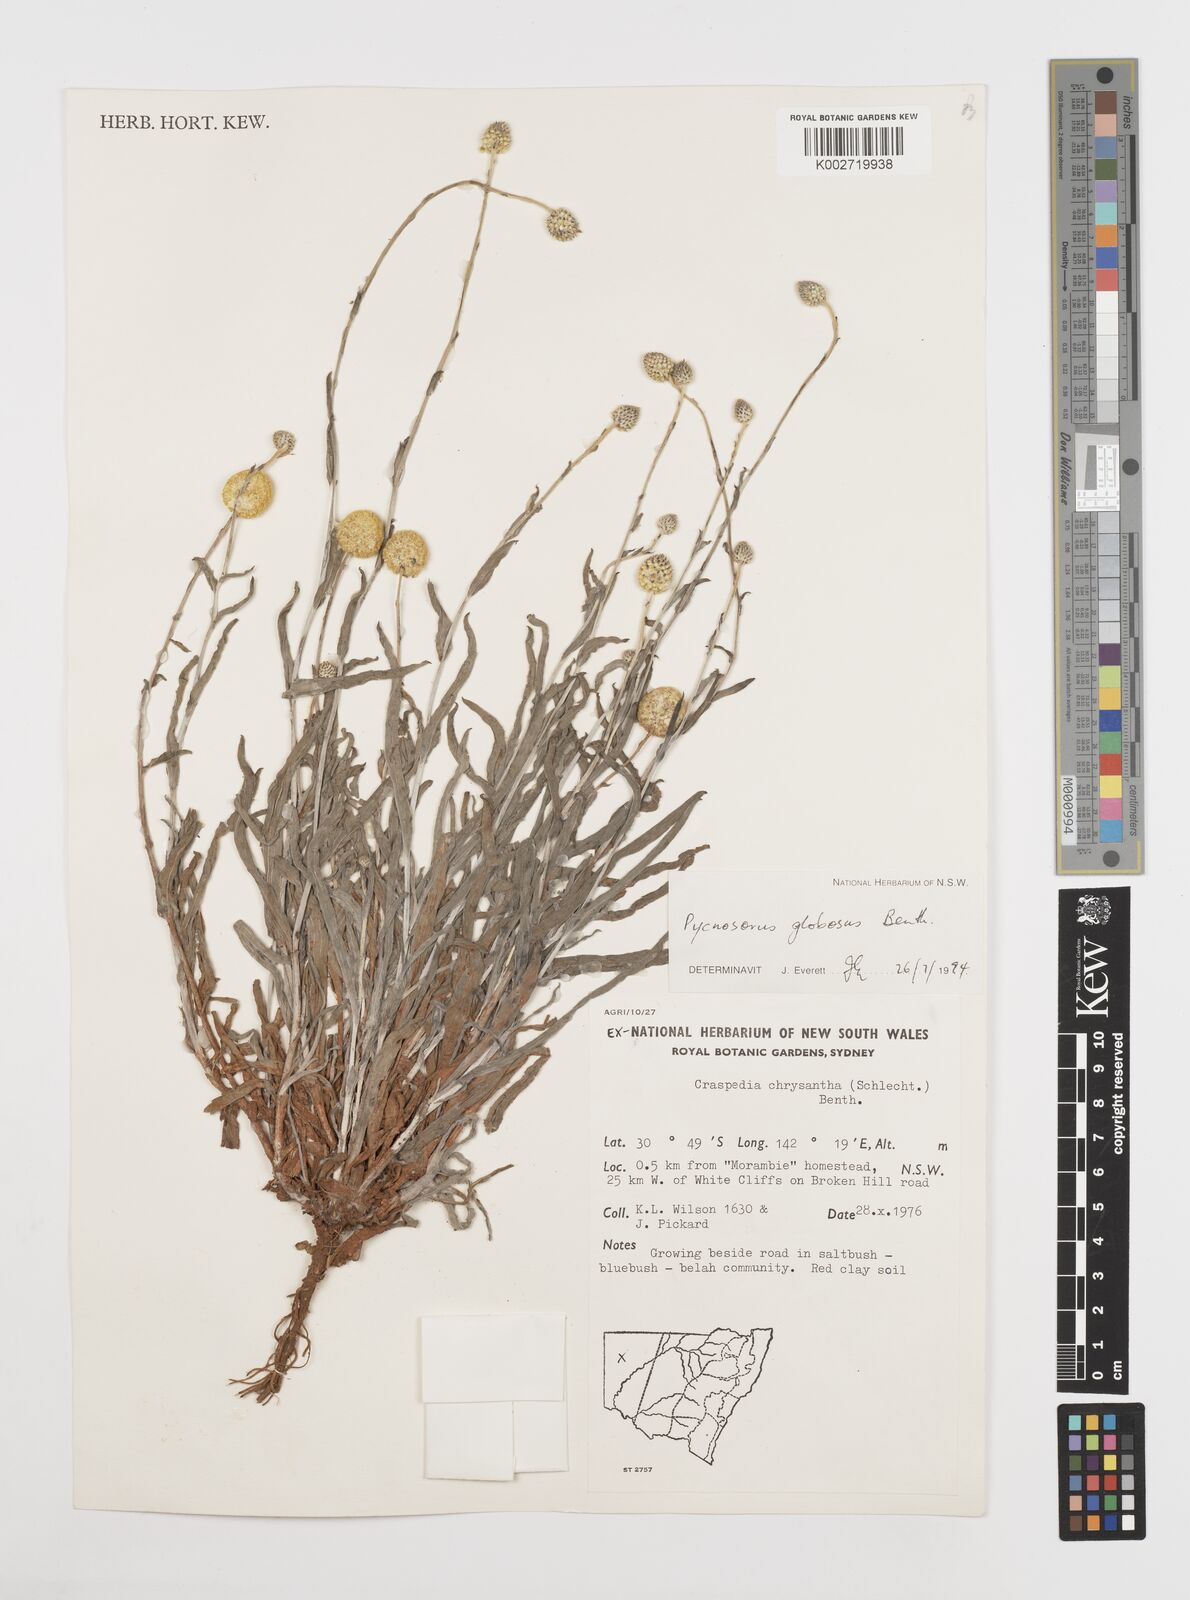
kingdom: Plantae
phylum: Tracheophyta
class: Magnoliopsida
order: Asterales
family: Asteraceae
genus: Pycnosorus
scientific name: Pycnosorus globosus
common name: Drumsticks
